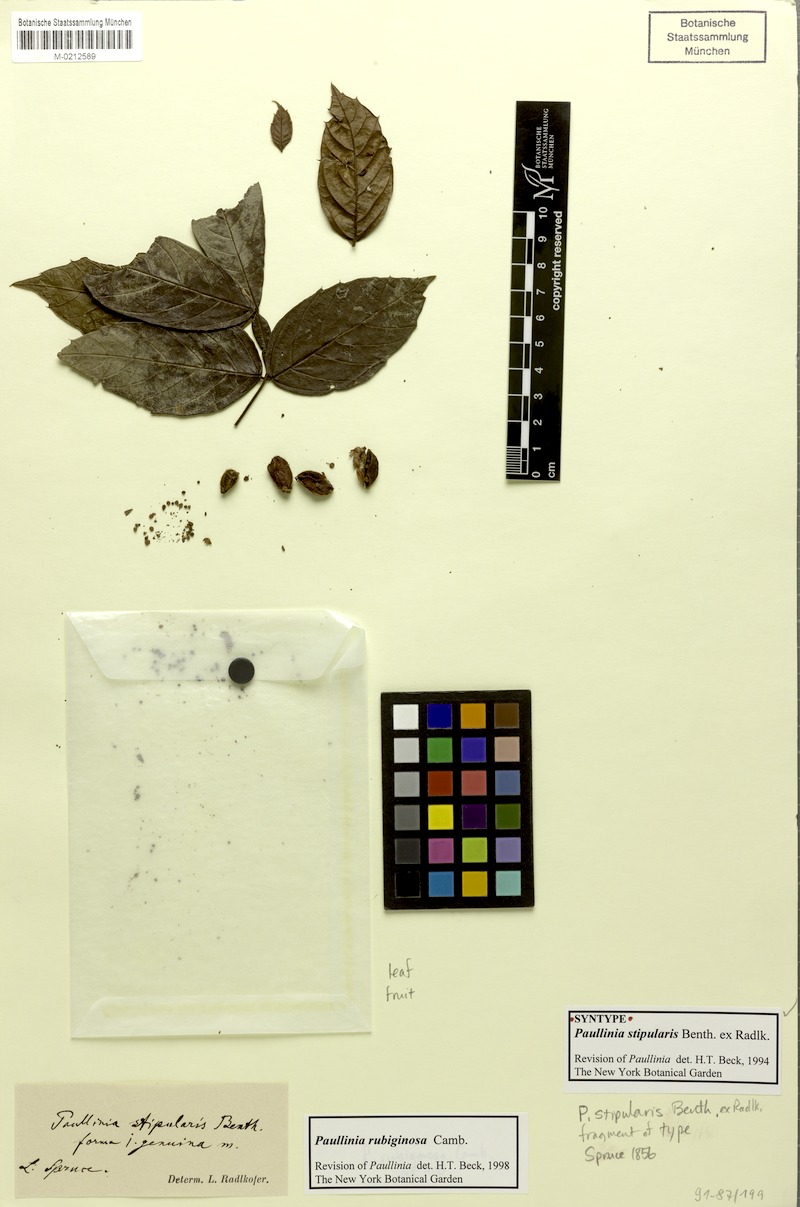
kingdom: Plantae
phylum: Tracheophyta
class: Magnoliopsida
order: Sapindales
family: Sapindaceae
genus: Paullinia
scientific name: Paullinia rubiginosa
